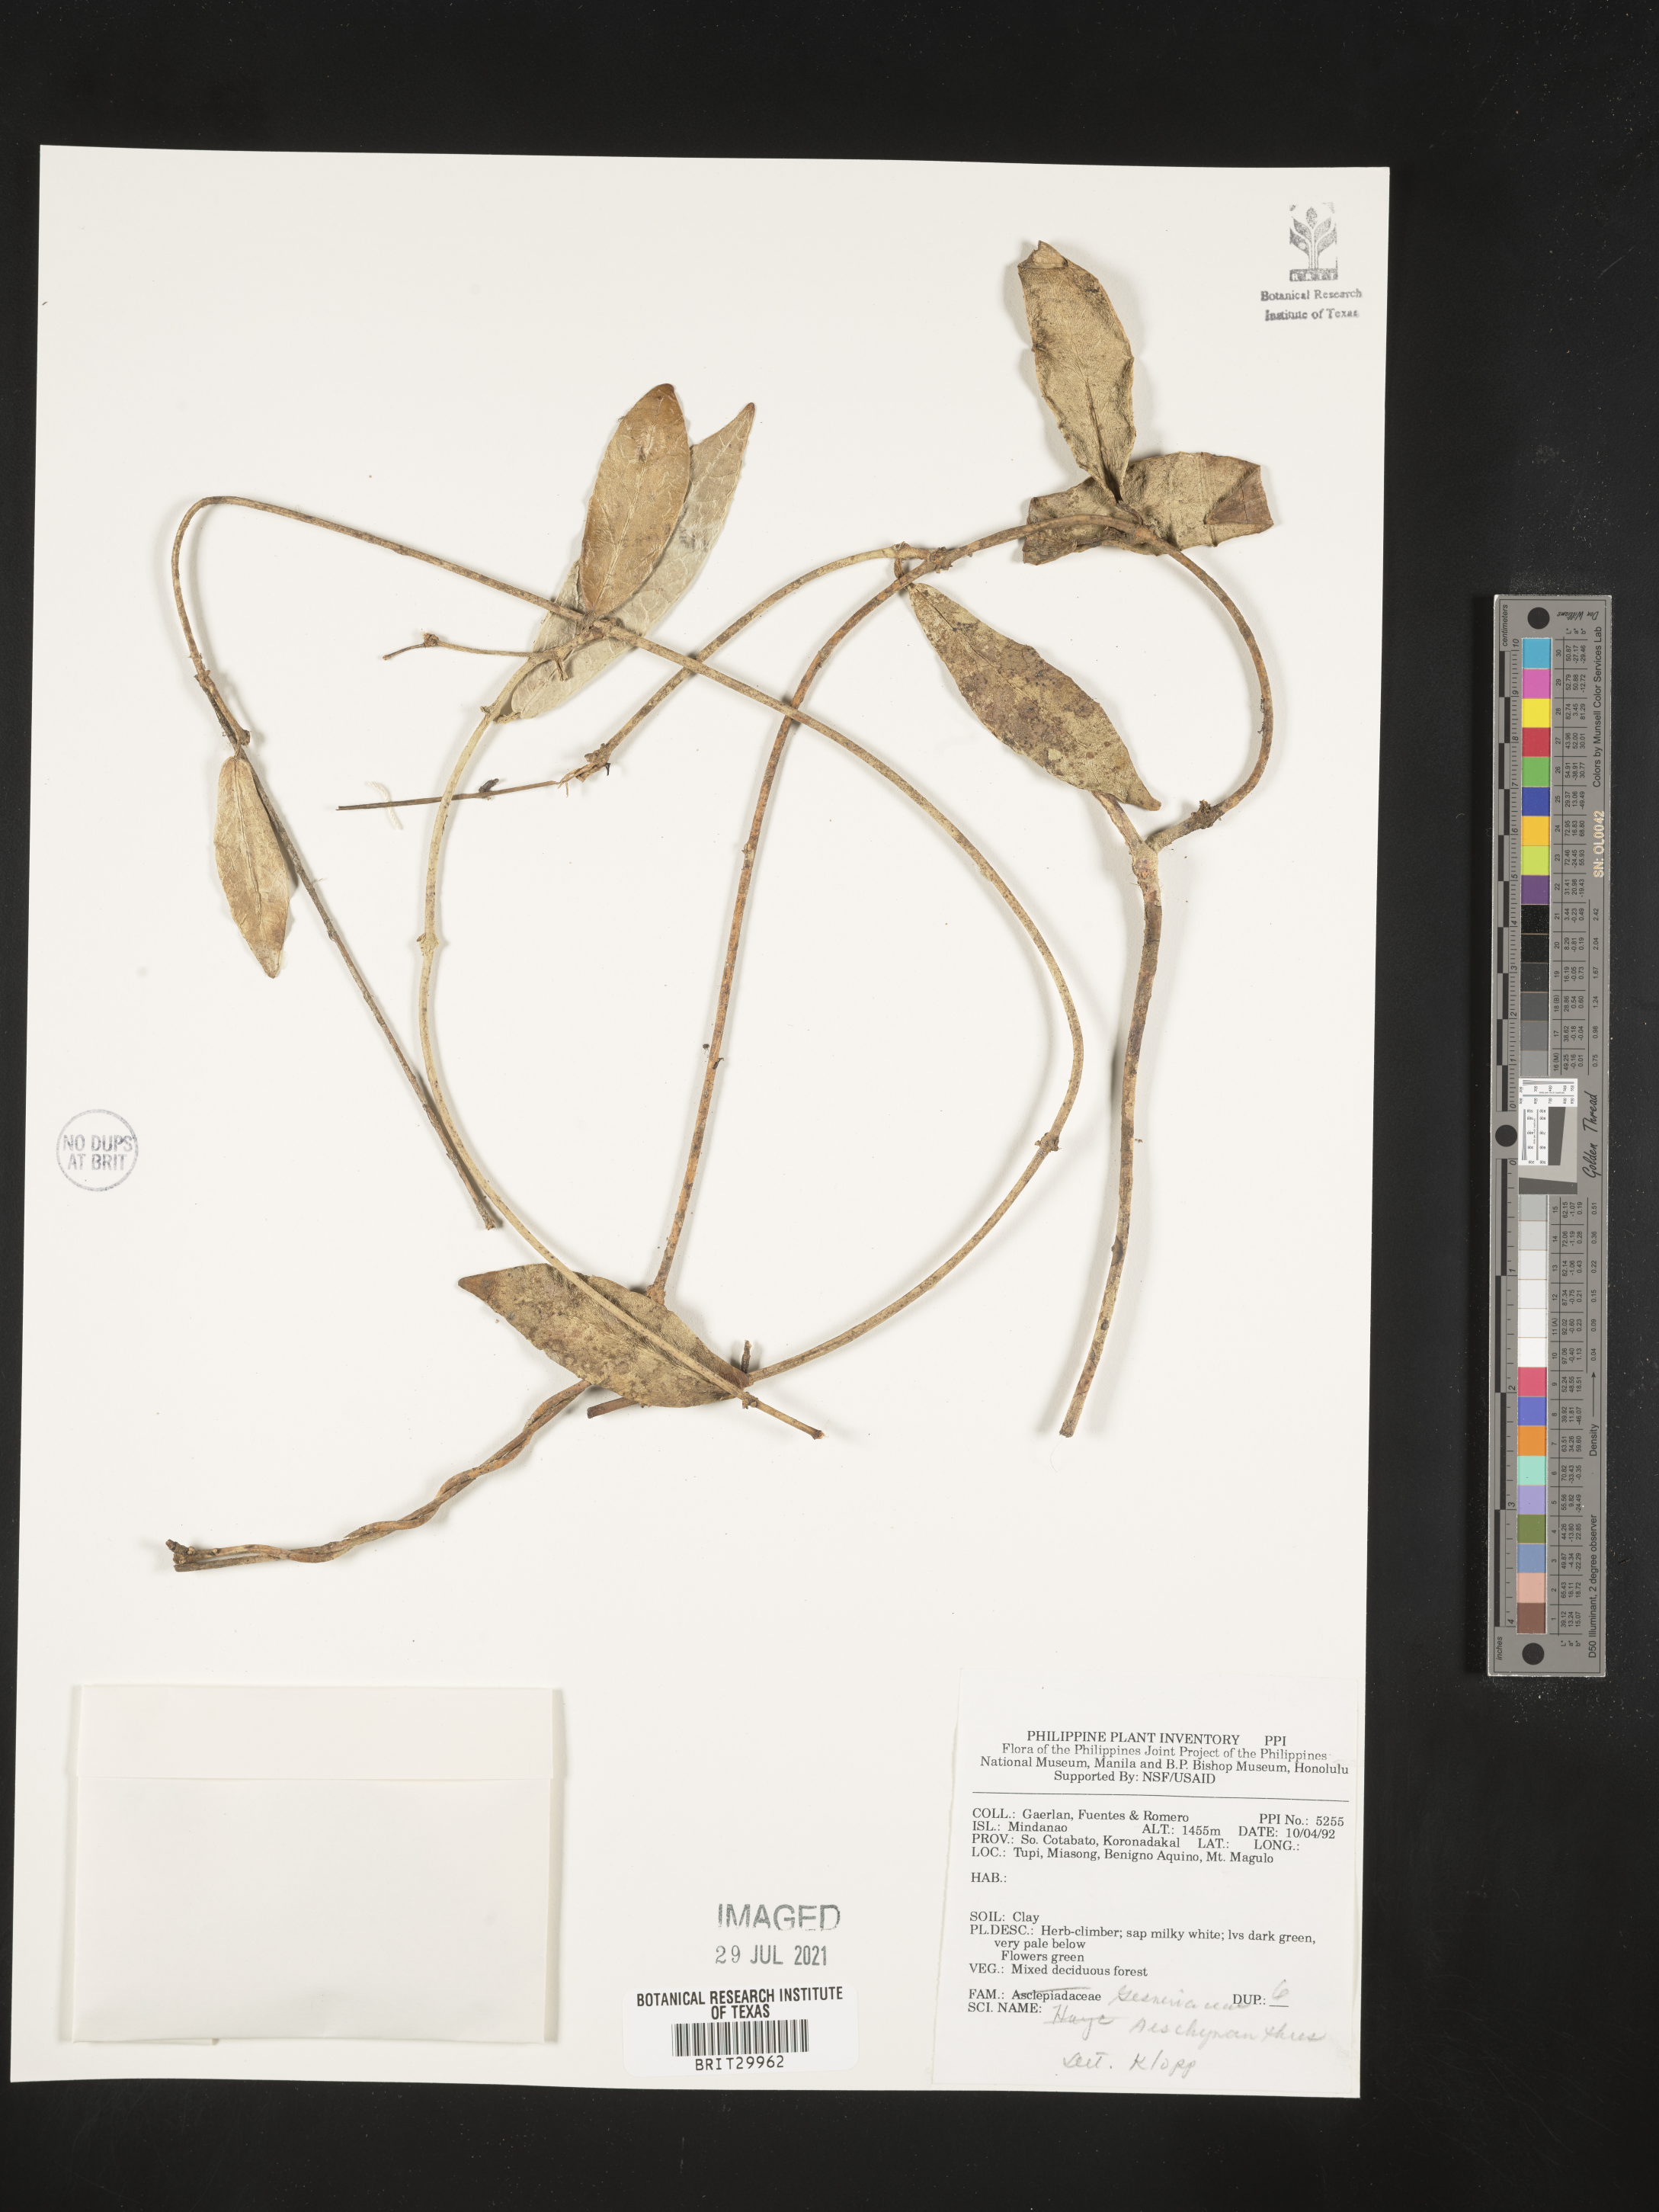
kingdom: Plantae
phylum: Tracheophyta
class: Magnoliopsida
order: Lamiales
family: Gesneriaceae
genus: Aeschynanthus
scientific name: Aeschynanthus
